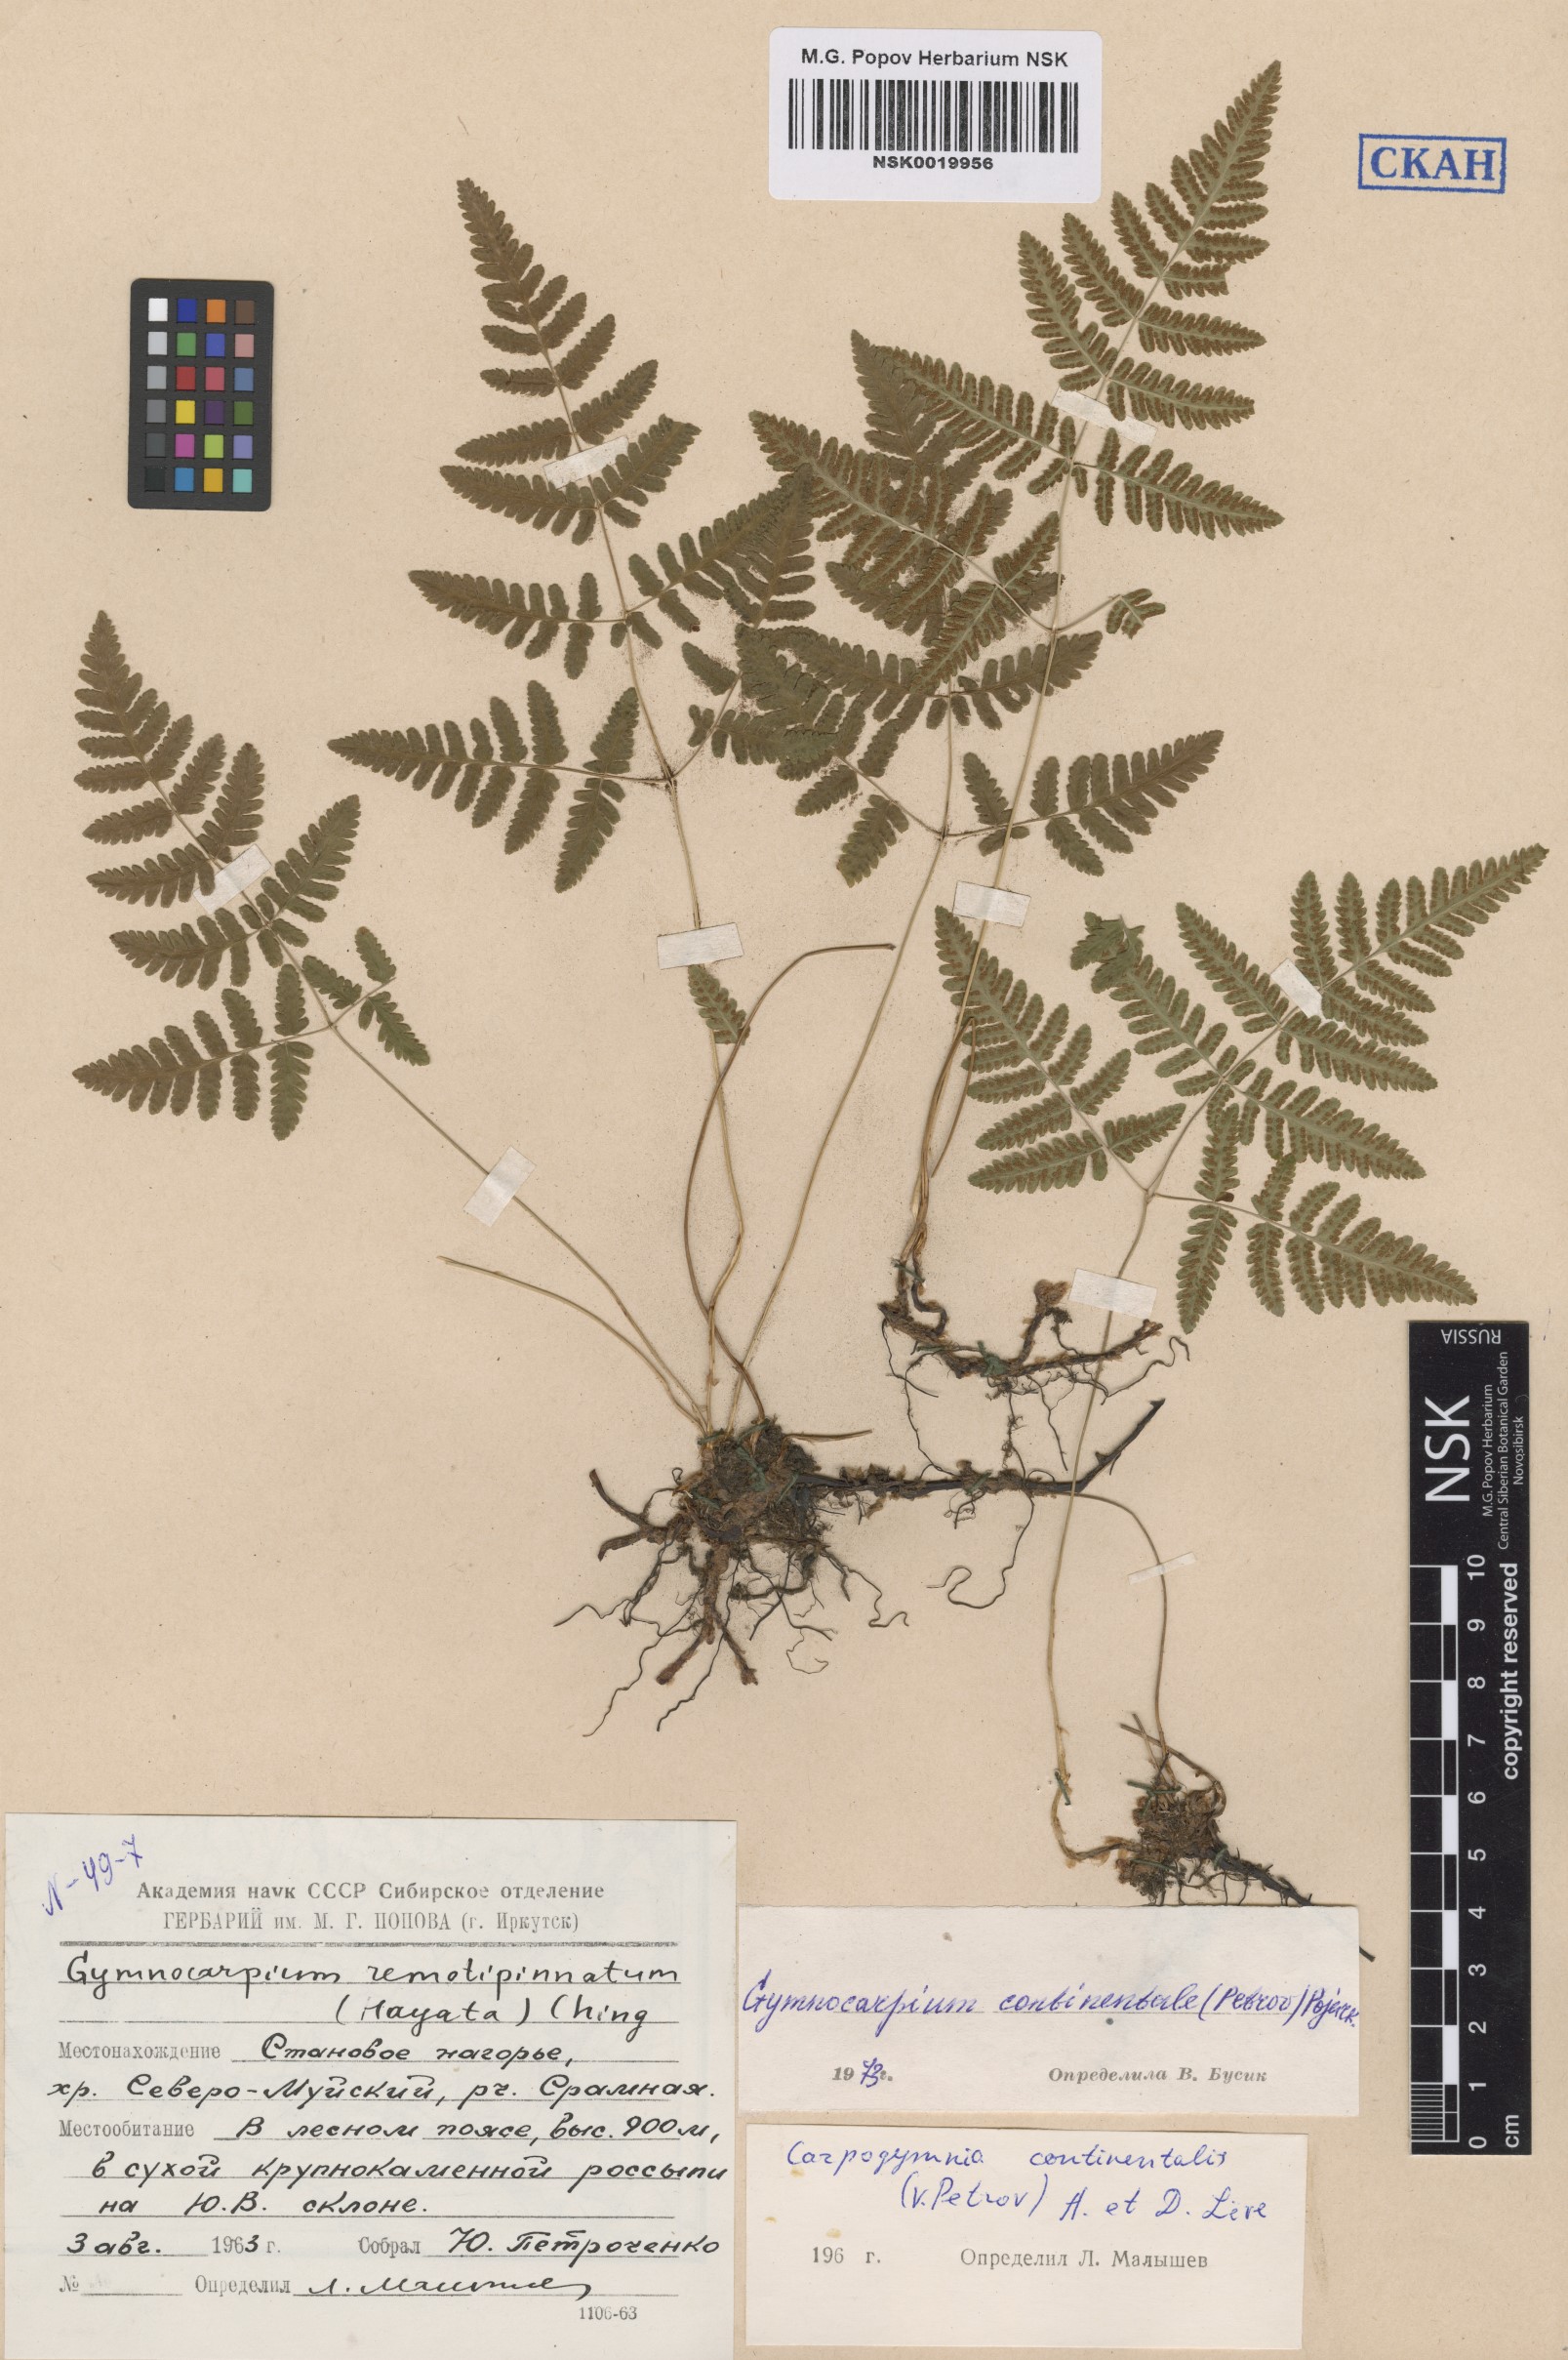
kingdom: Plantae
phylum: Tracheophyta
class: Polypodiopsida
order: Polypodiales
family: Cystopteridaceae
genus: Gymnocarpium
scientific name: Gymnocarpium continentale
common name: Asian oak fern
